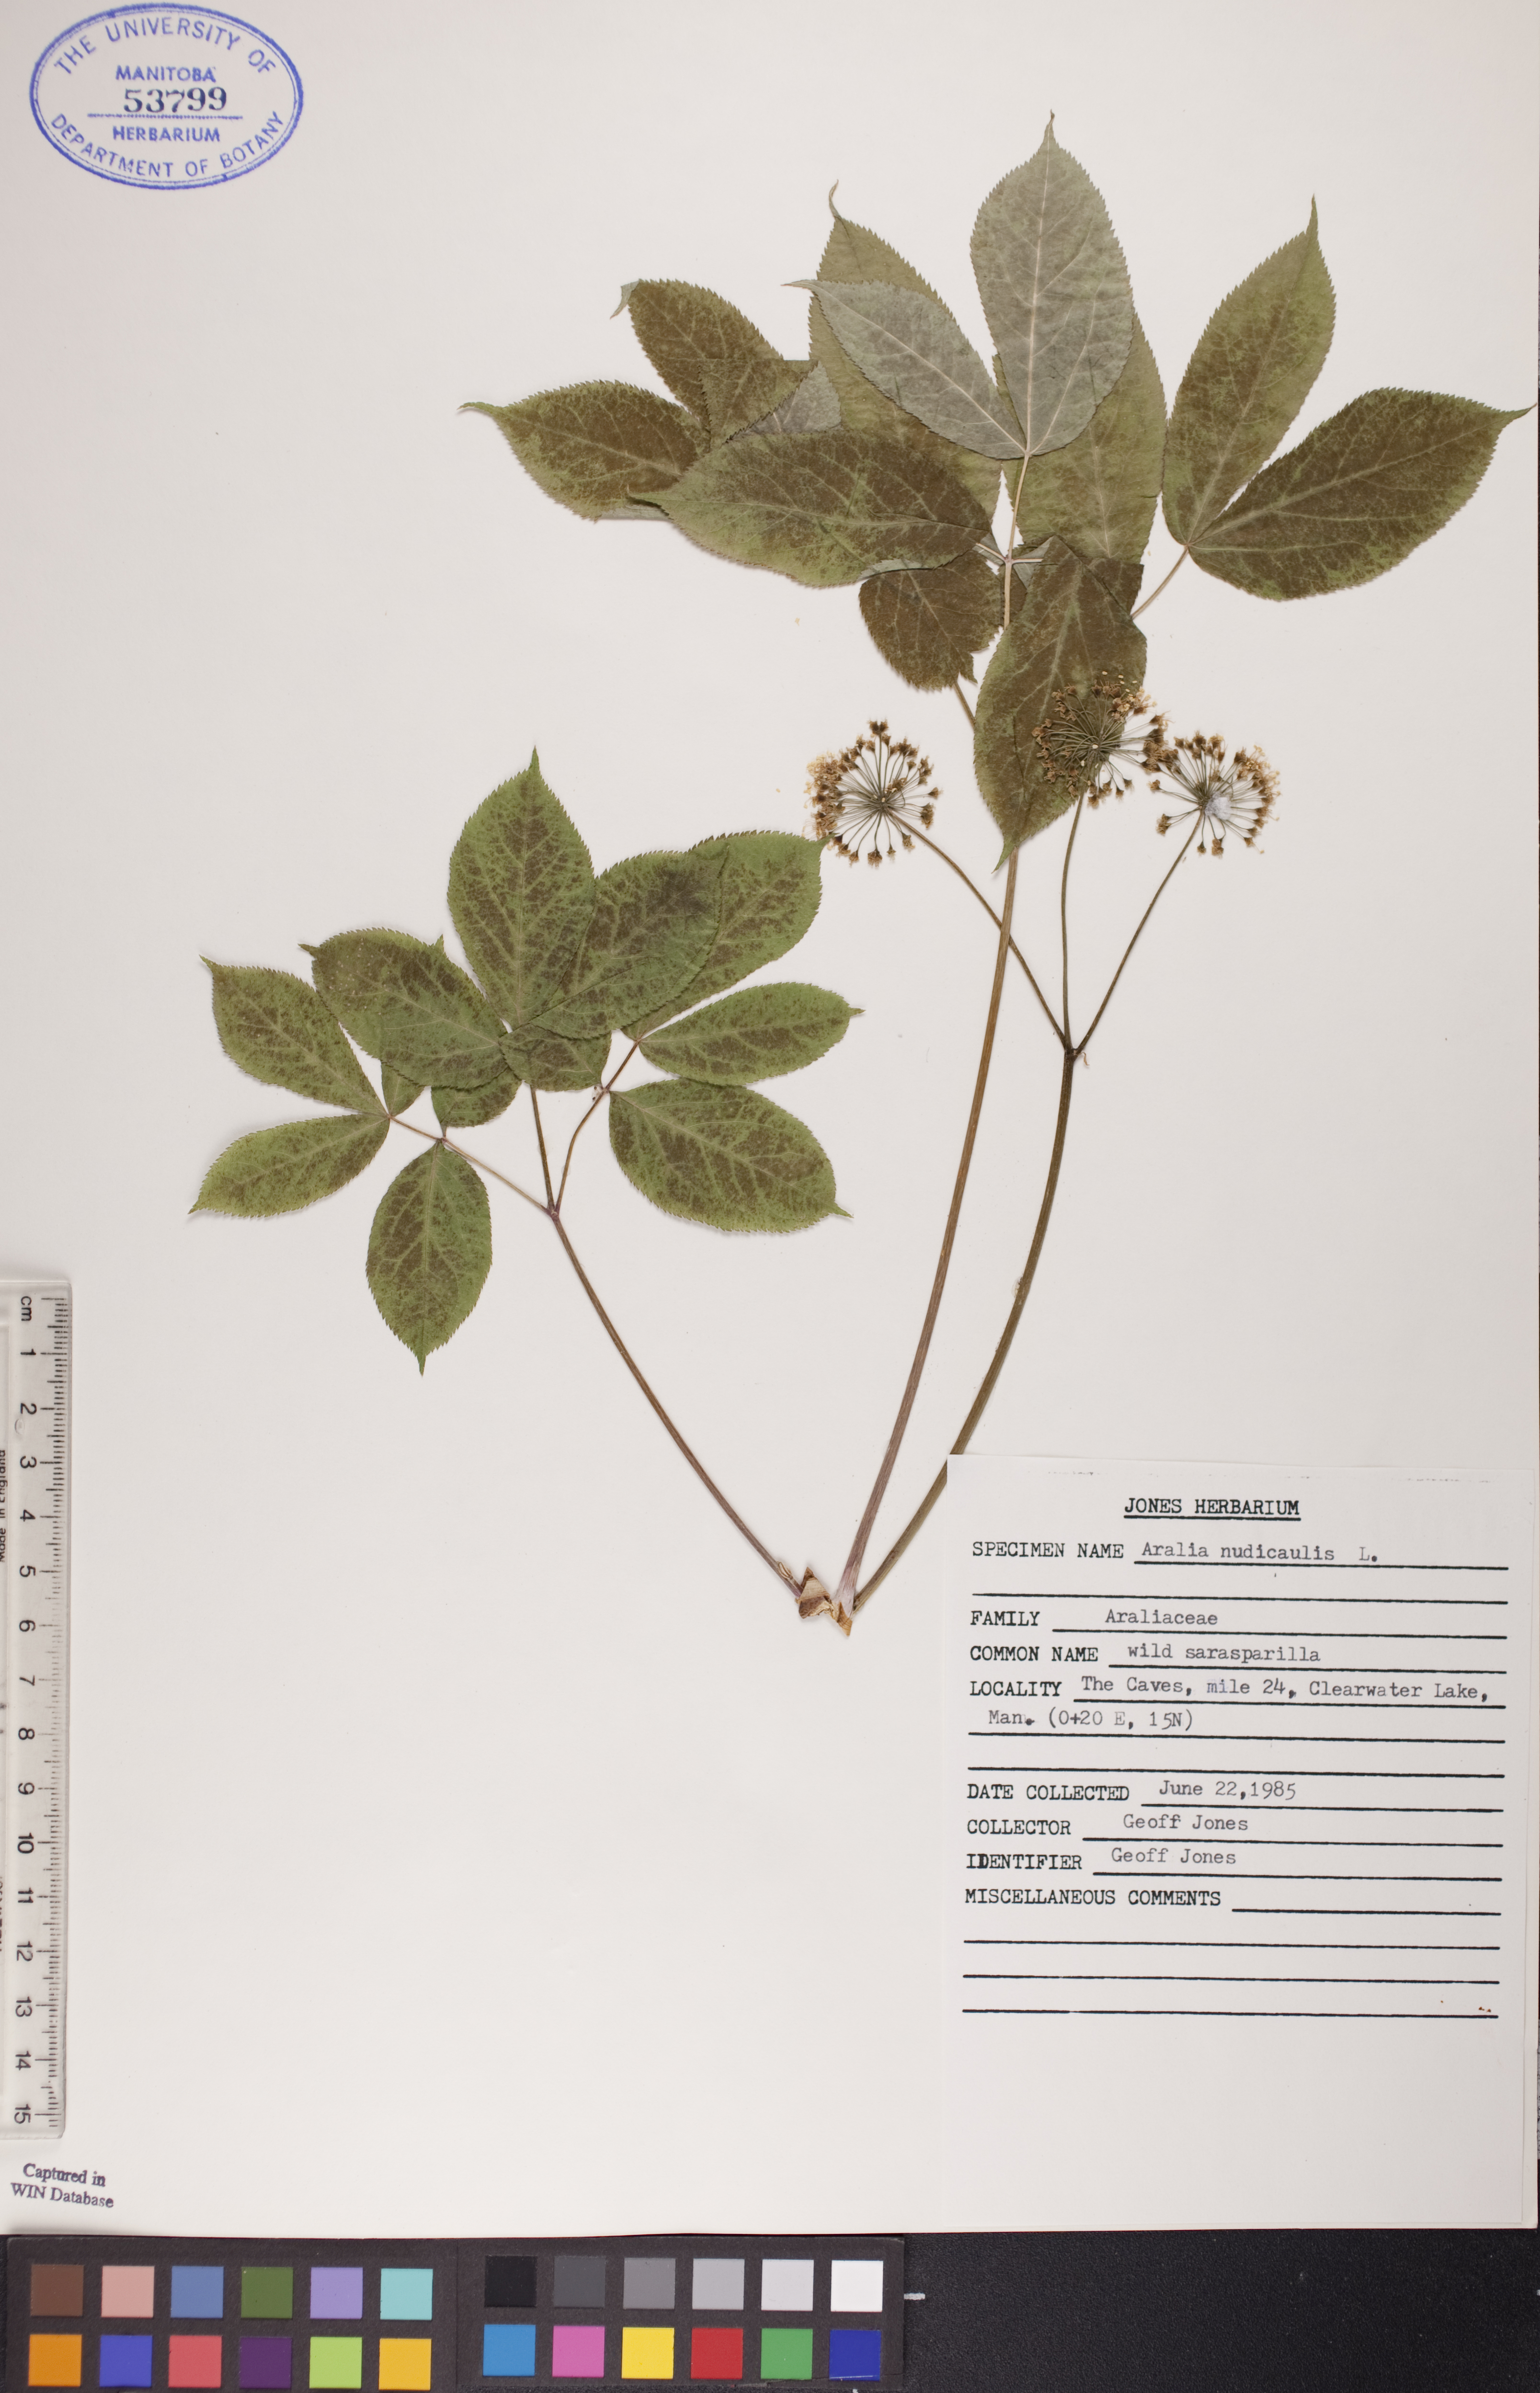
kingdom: Plantae
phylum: Tracheophyta
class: Magnoliopsida
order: Apiales
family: Araliaceae
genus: Aralia
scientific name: Aralia nudicaulis
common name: Wild sarsaparilla
